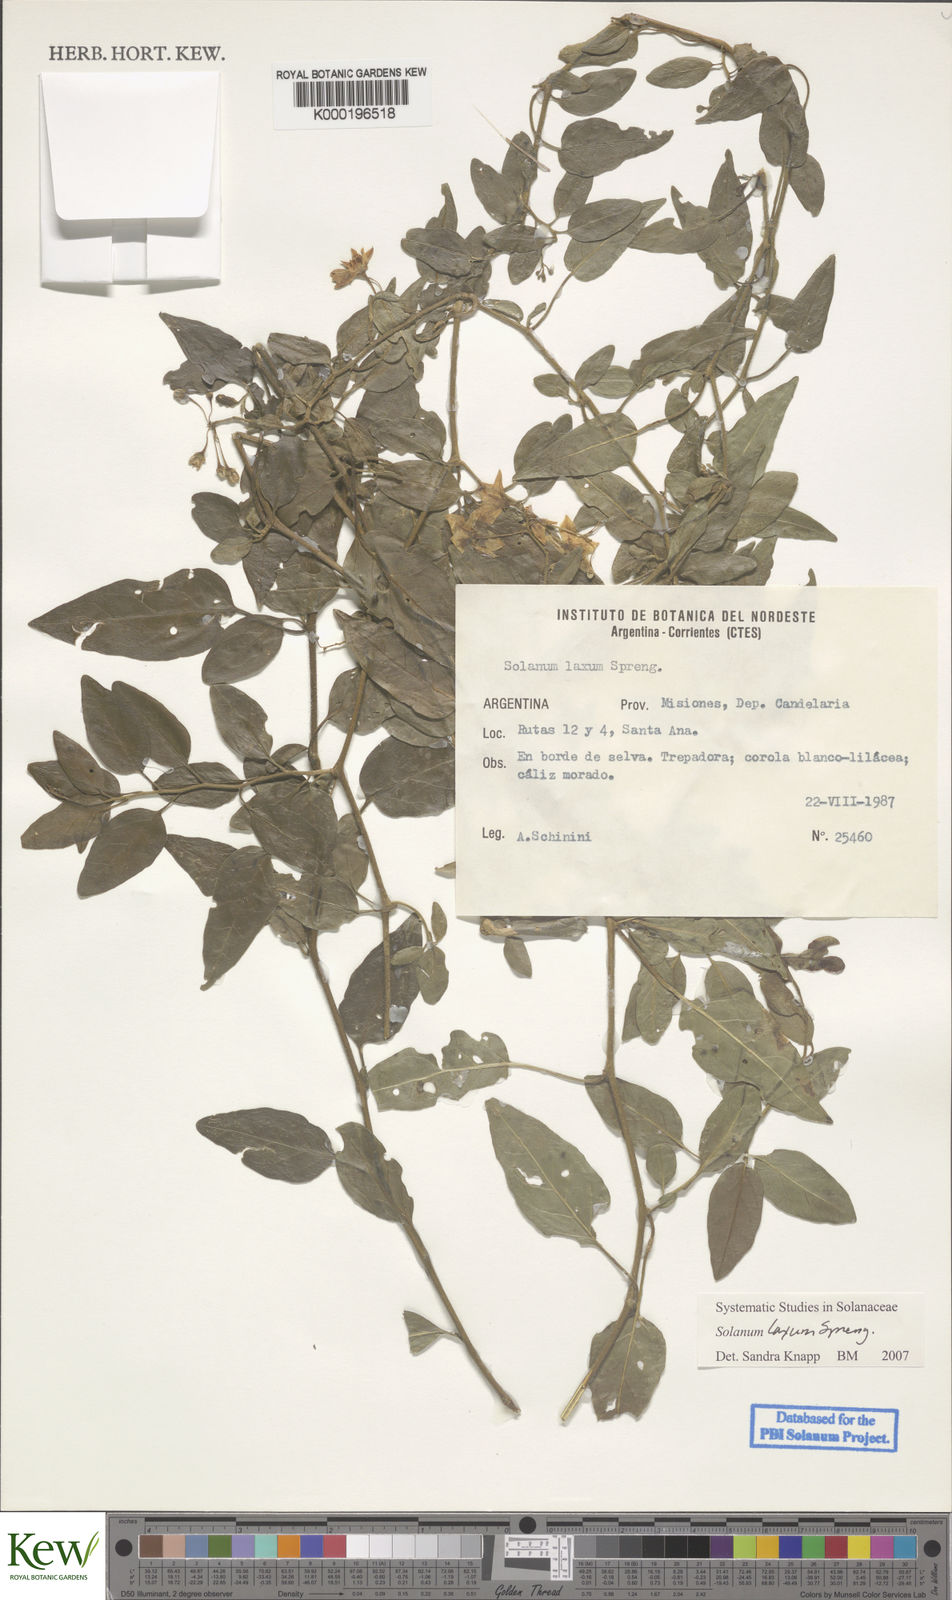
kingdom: Plantae
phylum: Tracheophyta
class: Magnoliopsida
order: Solanales
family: Solanaceae
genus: Solanum
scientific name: Solanum laxum
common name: Nightshade
